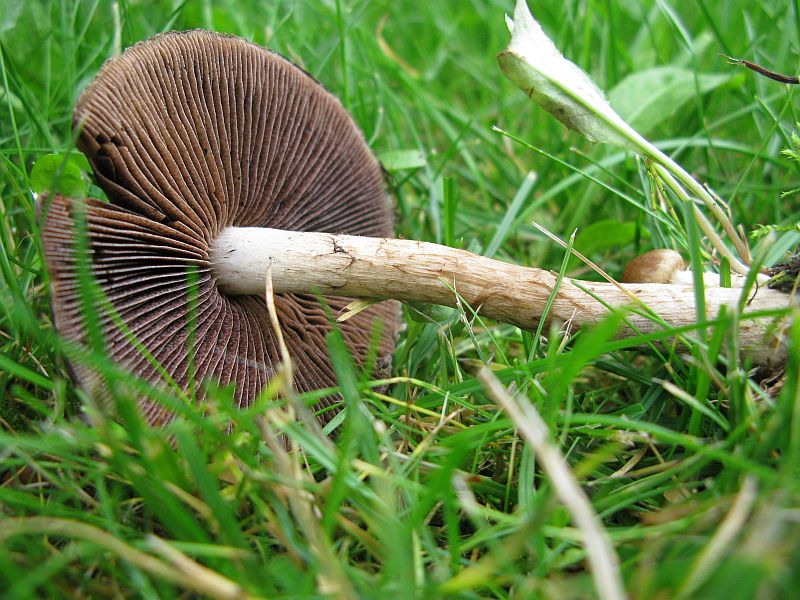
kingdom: Fungi
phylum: Basidiomycota
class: Agaricomycetes
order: Agaricales
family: Psathyrellaceae
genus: Lacrymaria
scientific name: Lacrymaria lacrymabunda
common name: grædende mørkhat
